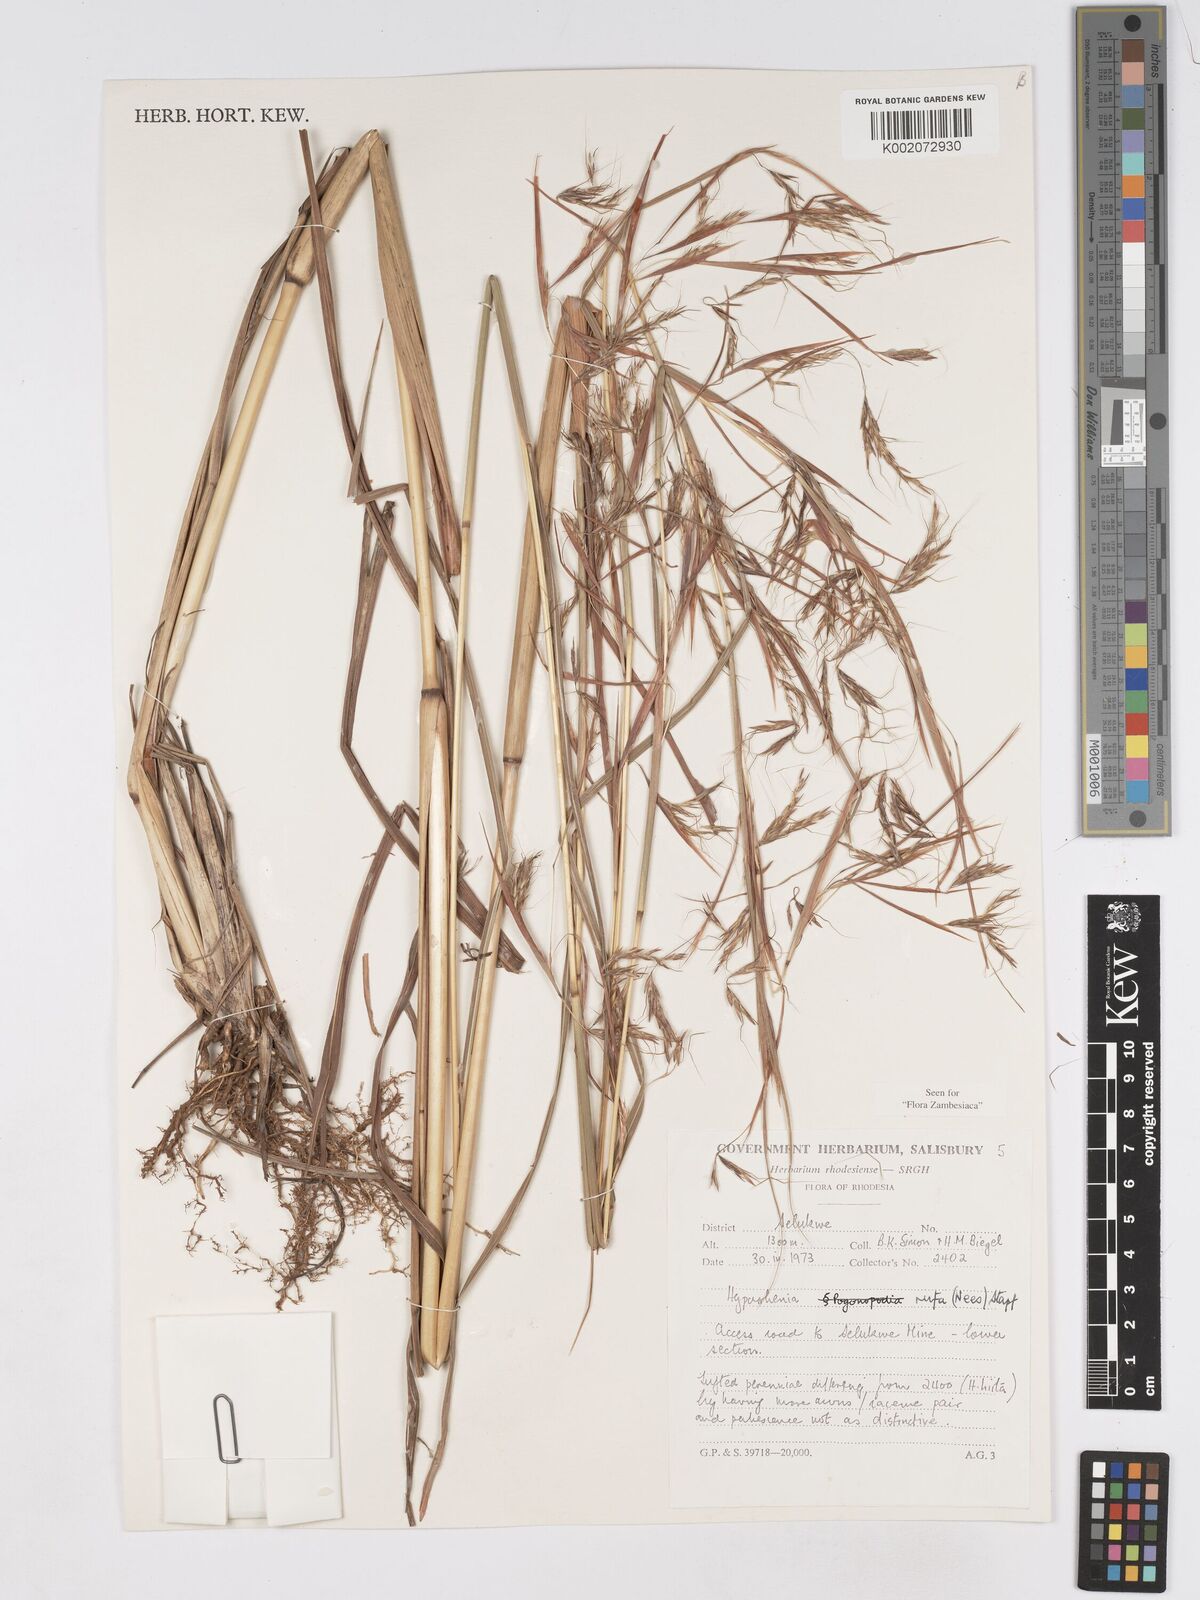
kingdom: Plantae
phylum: Tracheophyta
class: Liliopsida
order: Poales
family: Poaceae
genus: Hyparrhenia
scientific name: Hyparrhenia rufa
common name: Jaraguagrass
